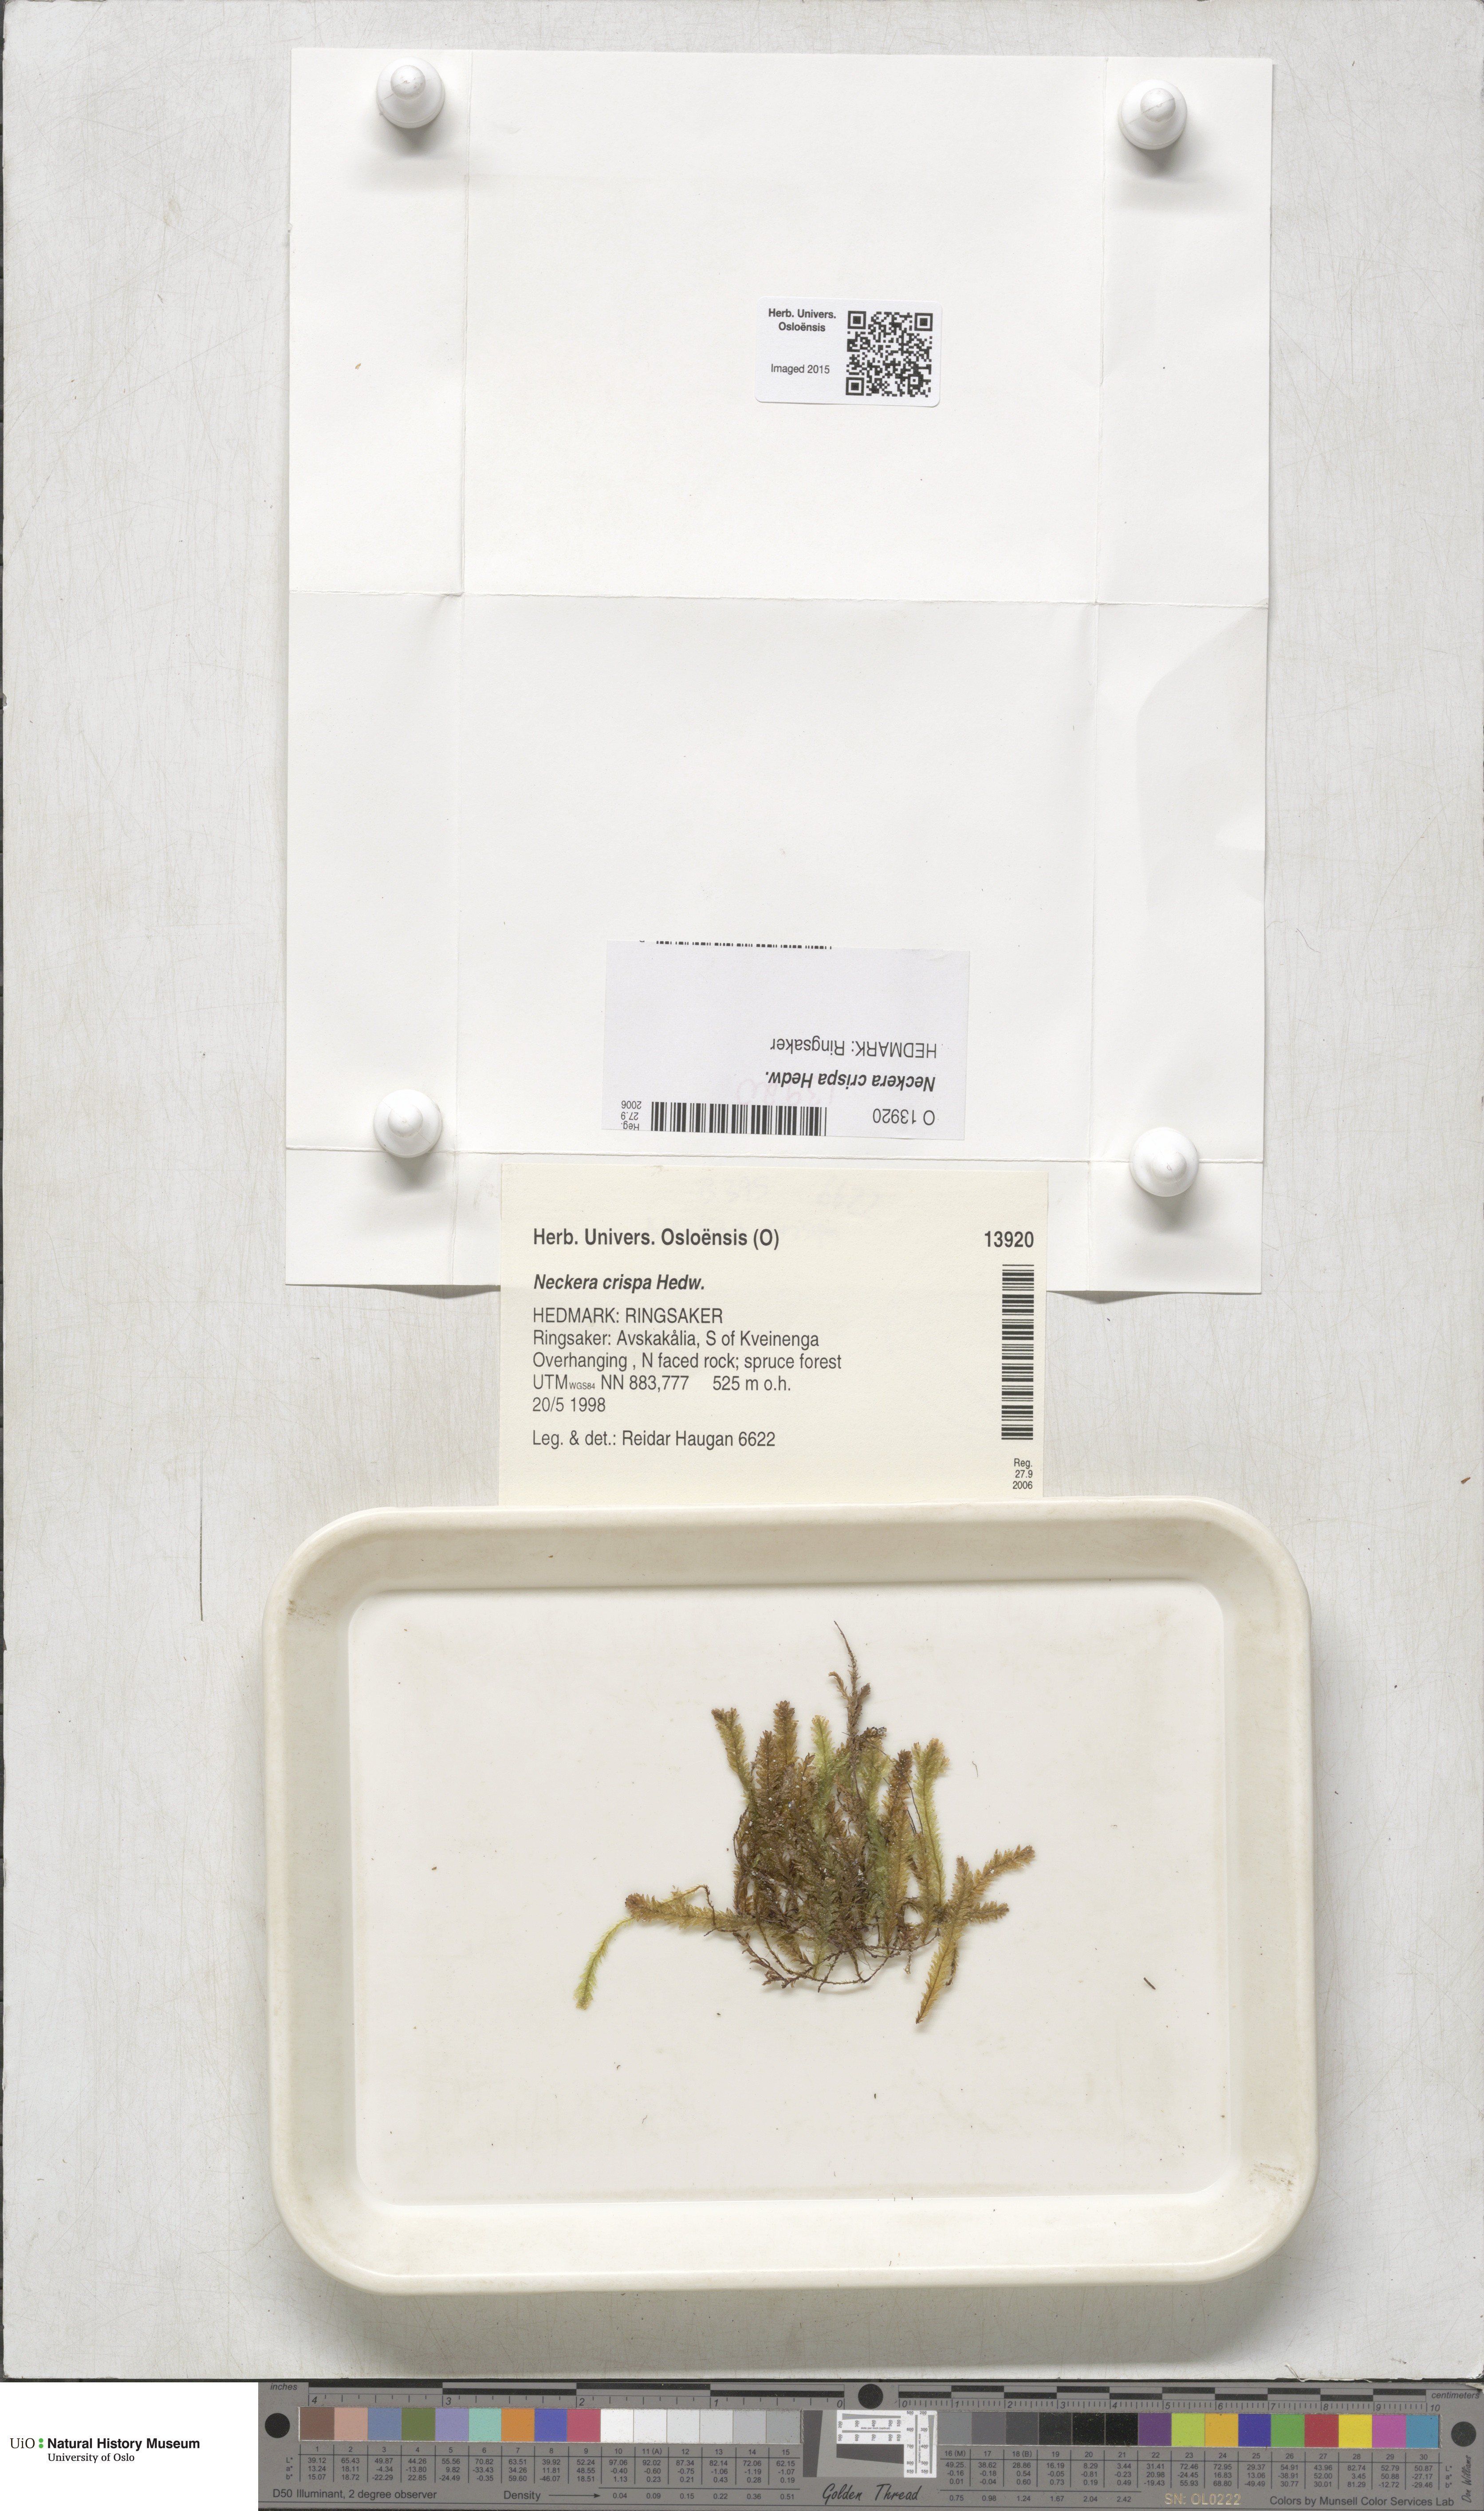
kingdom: Plantae
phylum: Bryophyta
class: Bryopsida
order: Hypnales
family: Neckeraceae
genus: Exsertotheca
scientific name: Exsertotheca crispa
